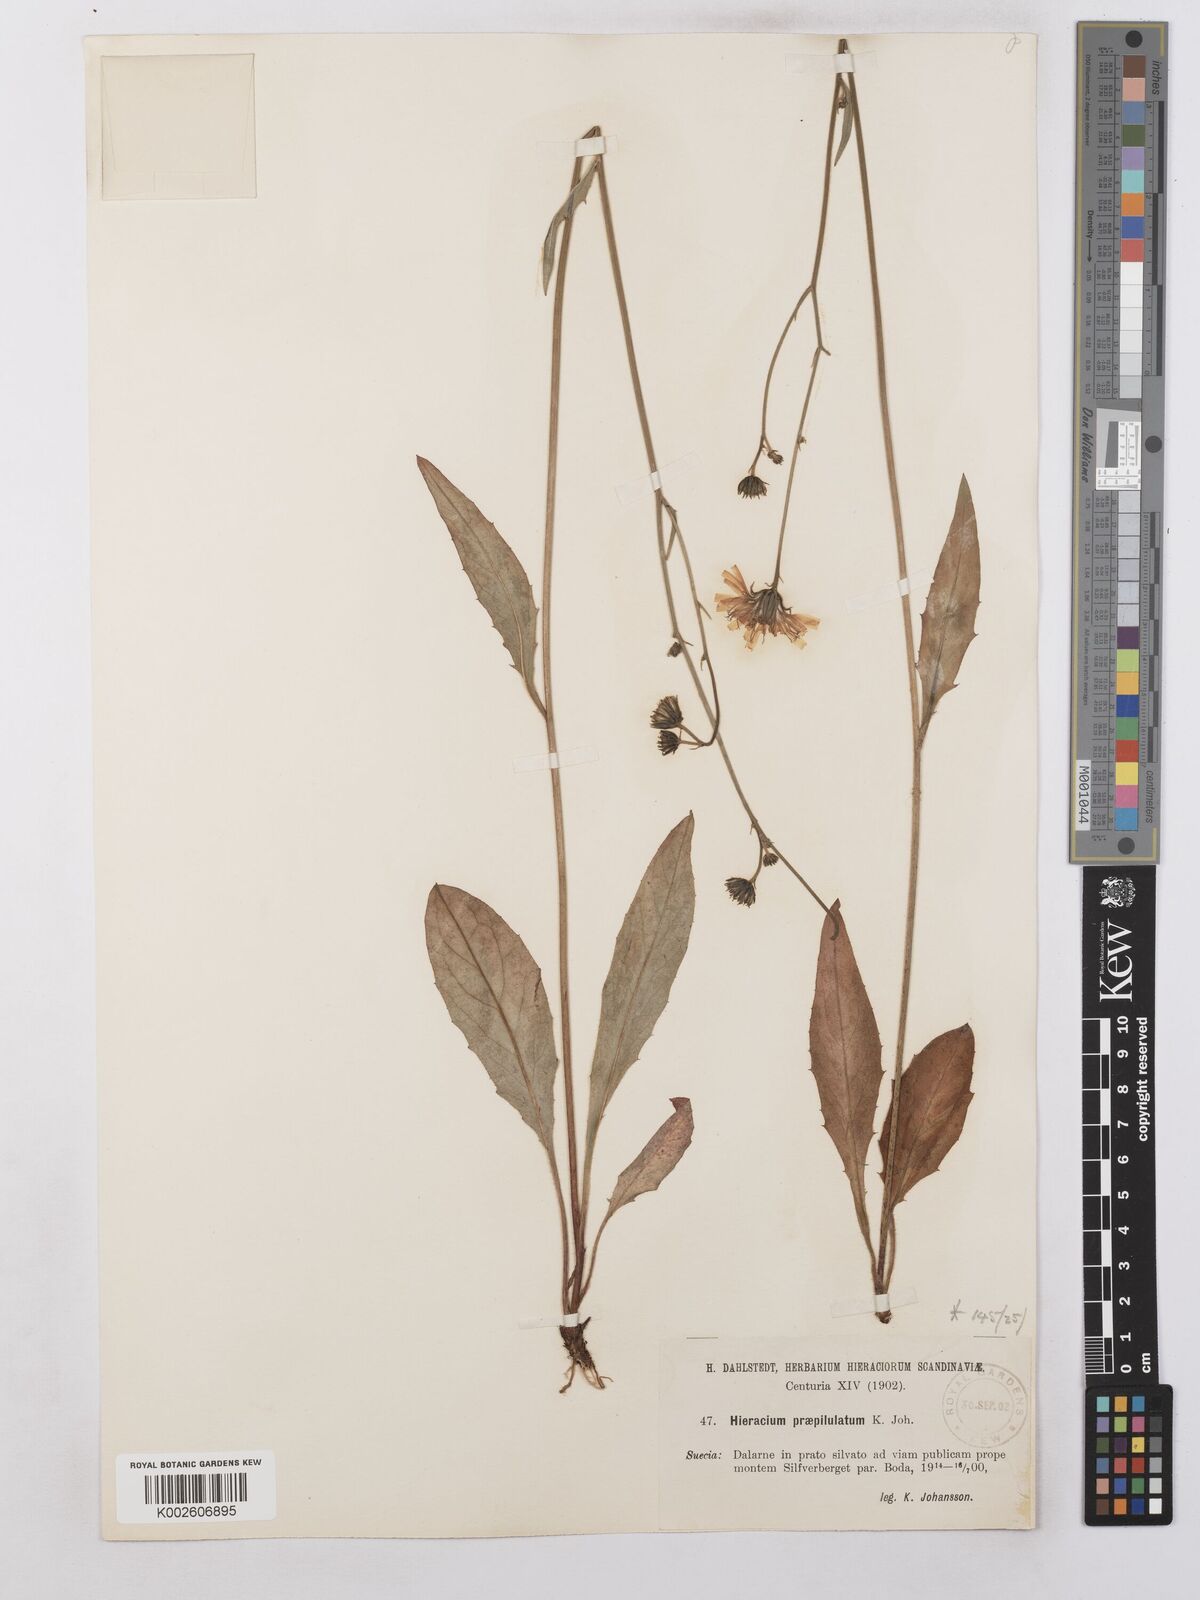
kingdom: Plantae
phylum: Tracheophyta
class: Magnoliopsida
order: Asterales
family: Asteraceae
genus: Hieracium
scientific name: Hieracium levicaule
